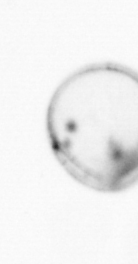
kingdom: Chromista
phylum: Myzozoa
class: Dinophyceae
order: Noctilucales
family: Noctilucaceae
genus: Noctiluca
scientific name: Noctiluca scintillans
